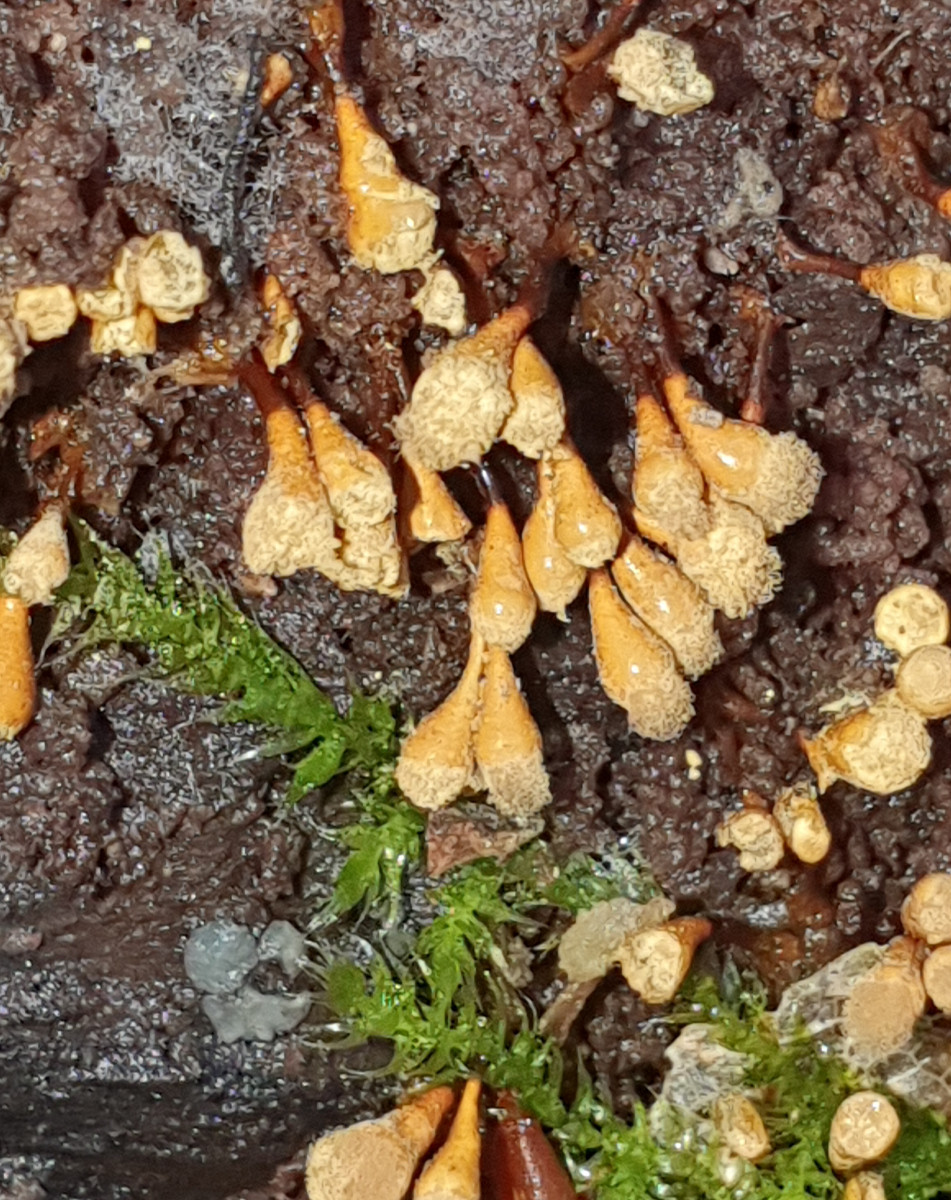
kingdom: Protozoa
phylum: Mycetozoa
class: Myxomycetes
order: Trichiales
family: Arcyriaceae
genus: Hemitrichia
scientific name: Hemitrichia clavata
